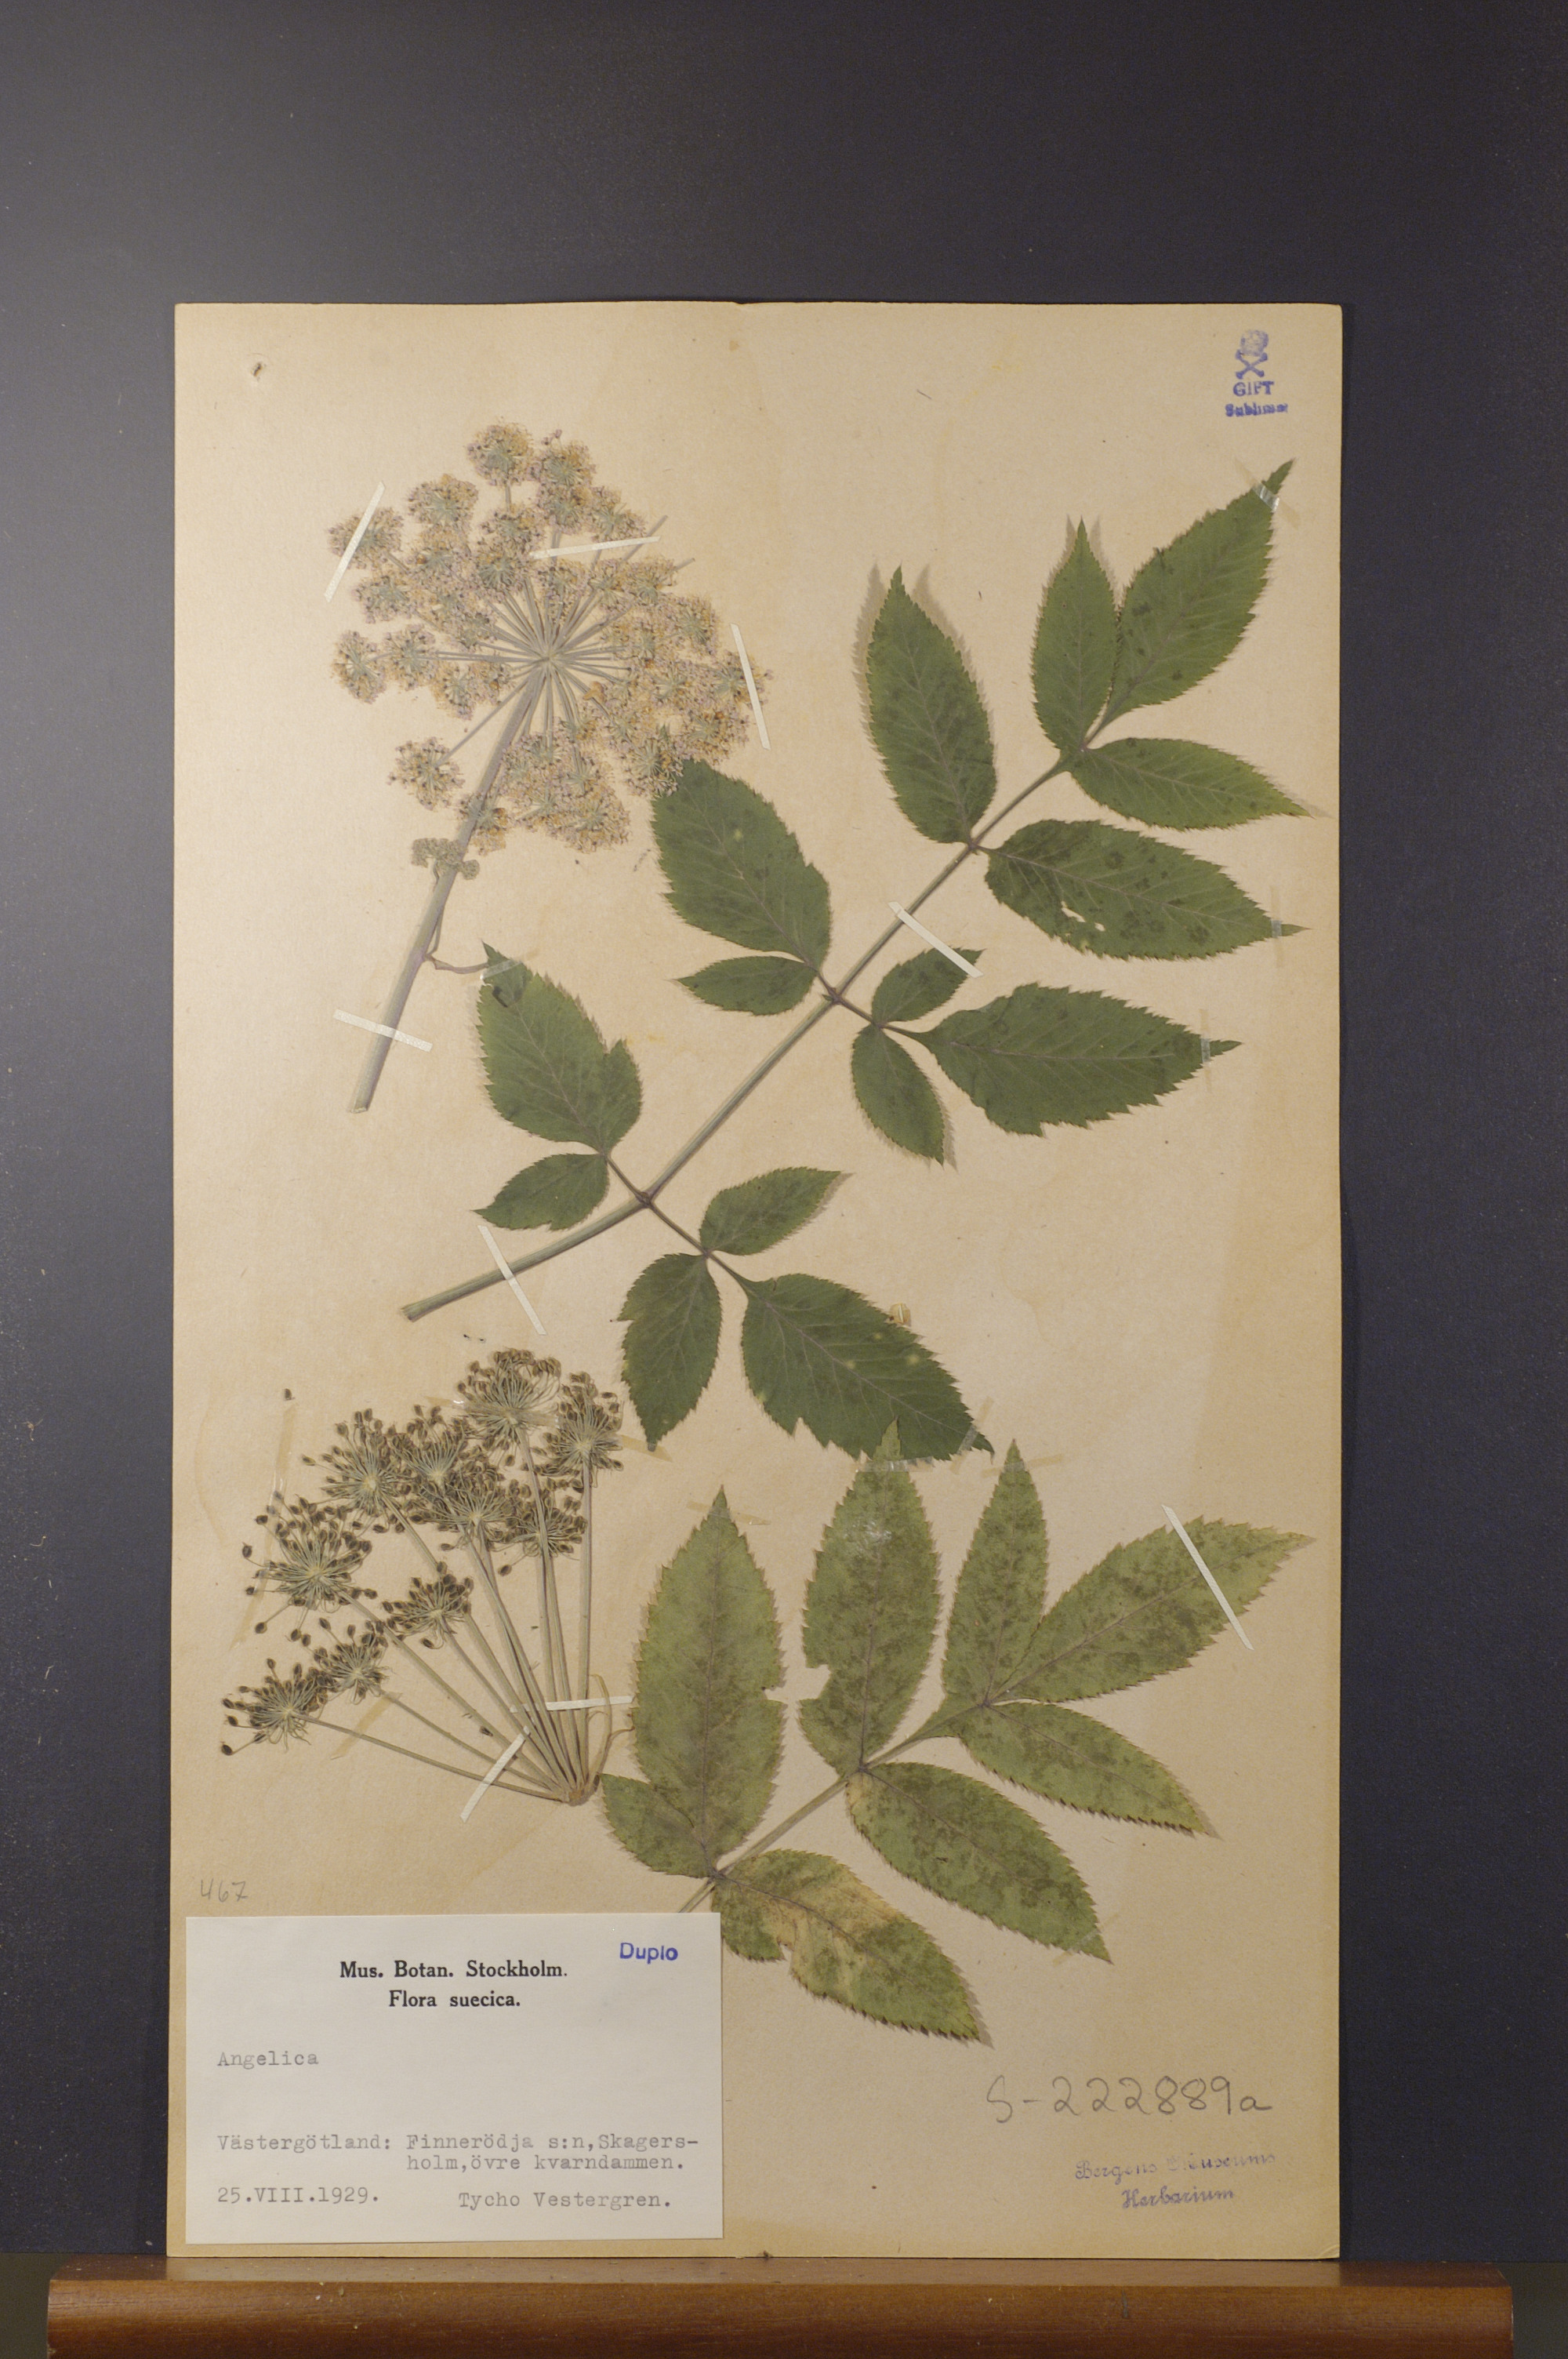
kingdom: Plantae
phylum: Tracheophyta
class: Magnoliopsida
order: Apiales
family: Apiaceae
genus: Angelica
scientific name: Angelica
